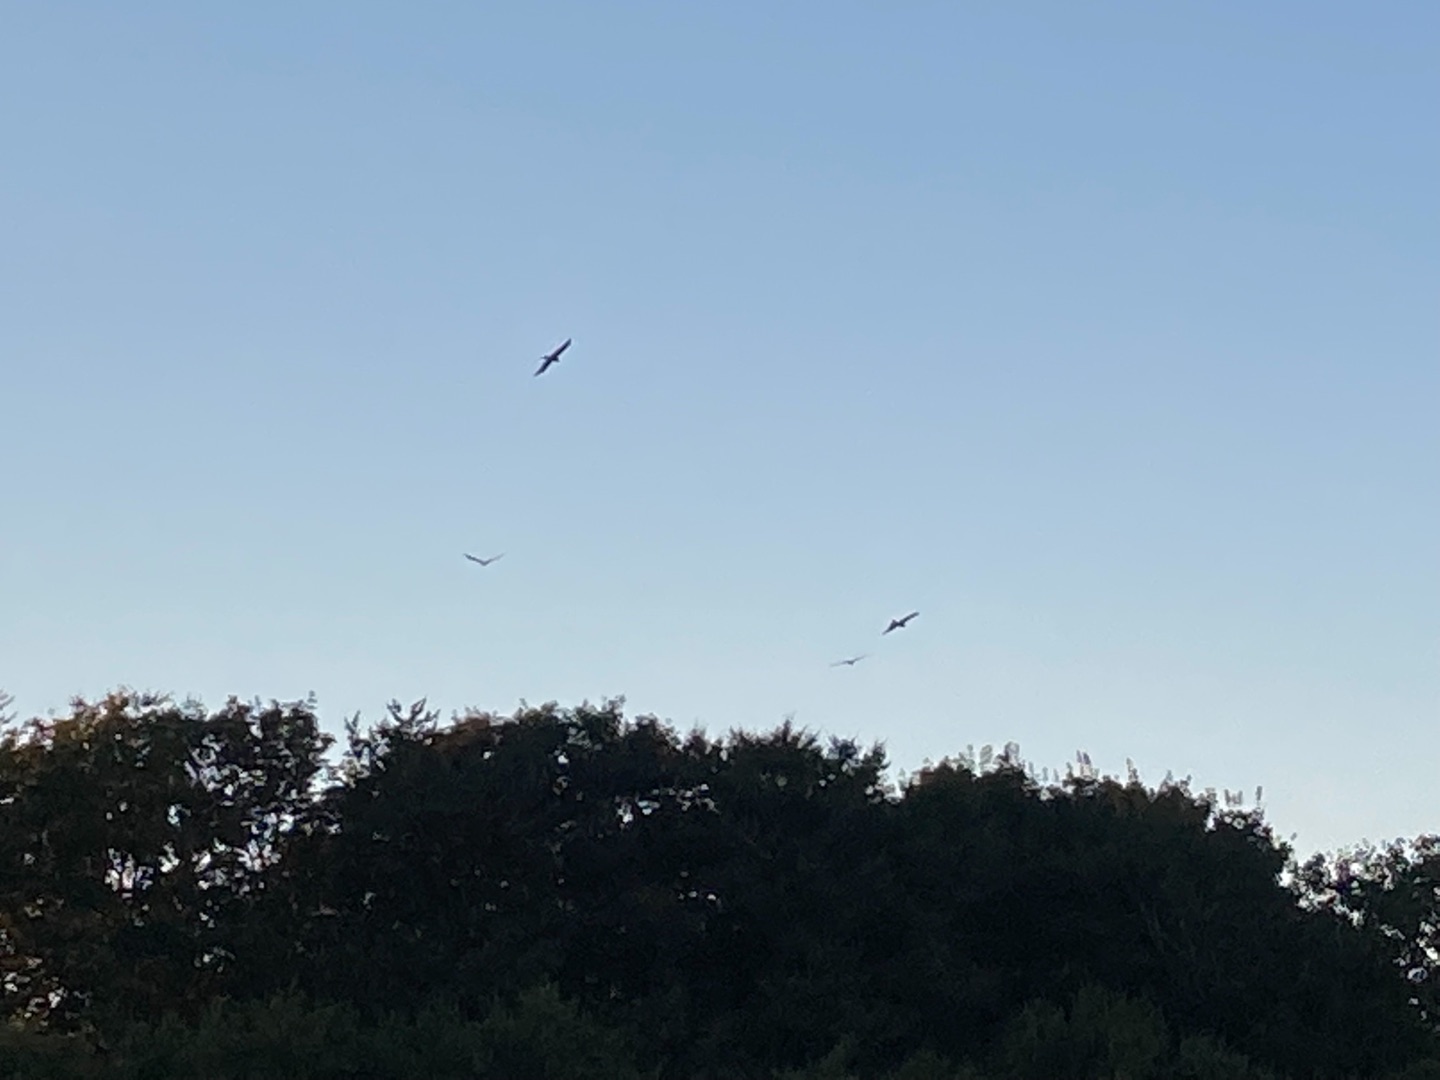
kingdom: Animalia
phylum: Chordata
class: Aves
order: Accipitriformes
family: Accipitridae
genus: Milvus
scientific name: Milvus milvus
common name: Rød glente
